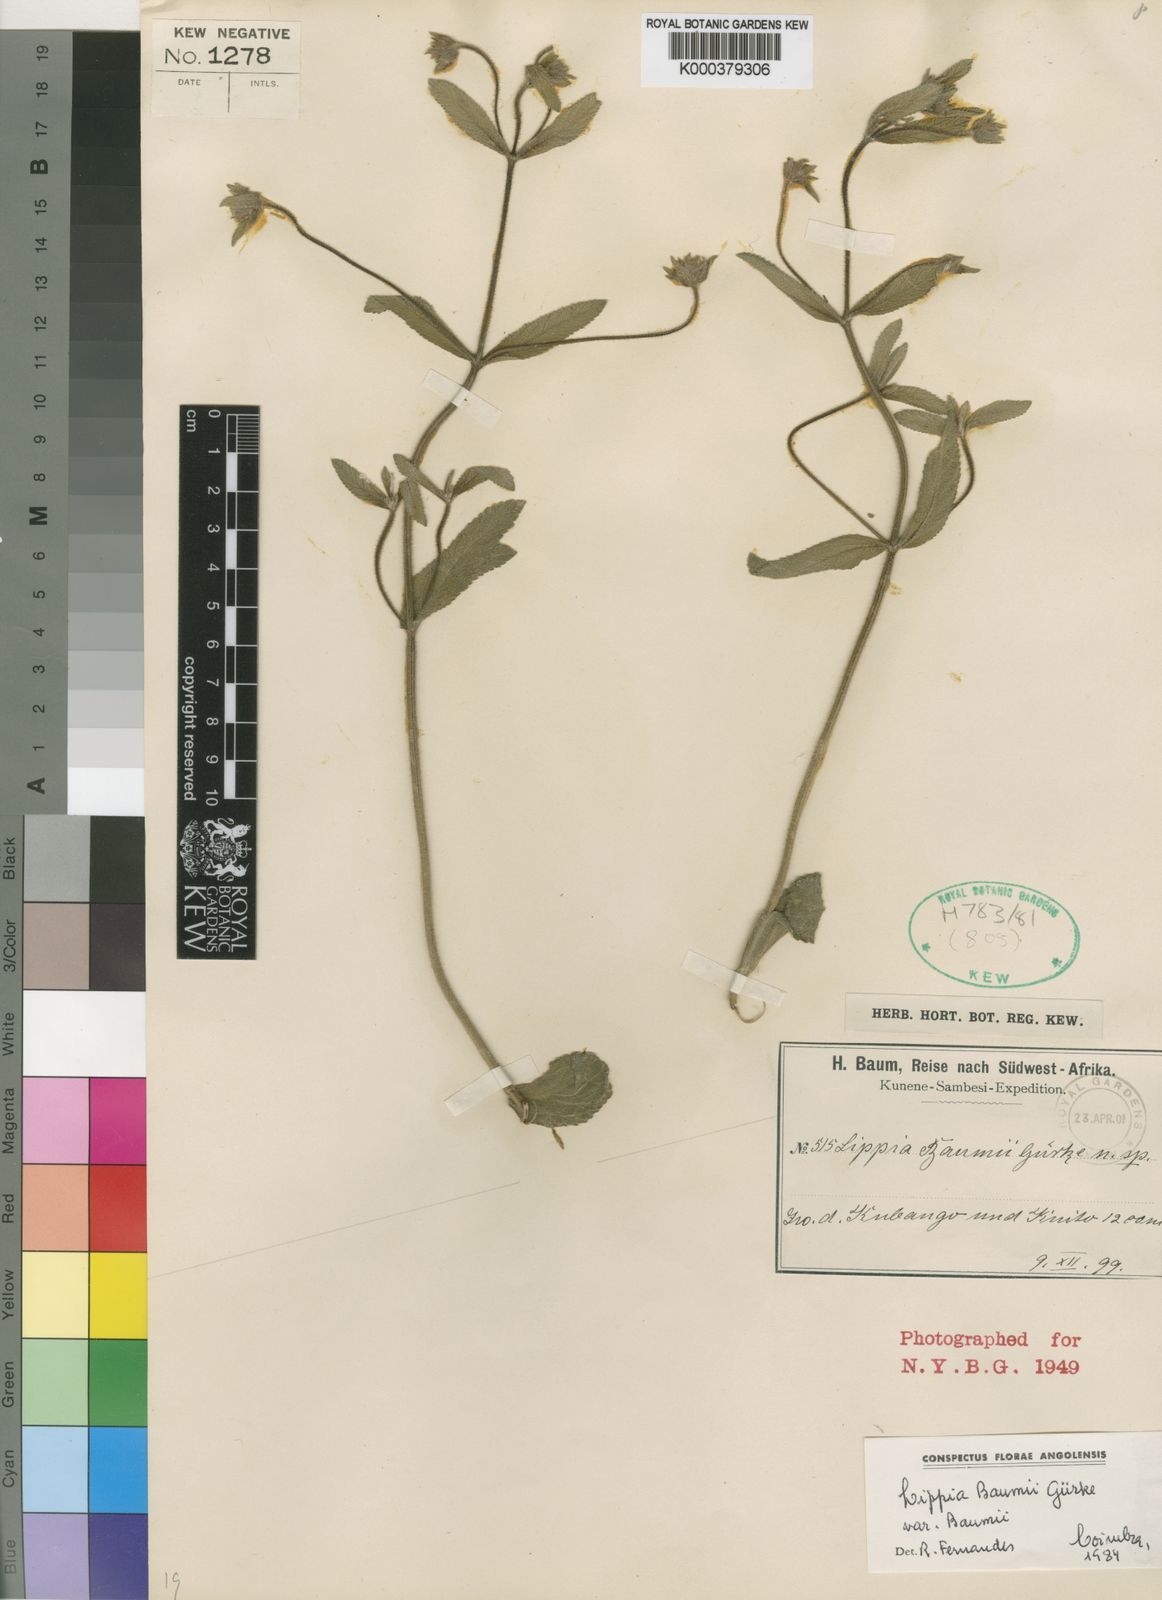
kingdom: Plantae
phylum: Tracheophyta
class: Magnoliopsida
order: Lamiales
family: Verbenaceae
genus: Lippia
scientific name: Lippia
